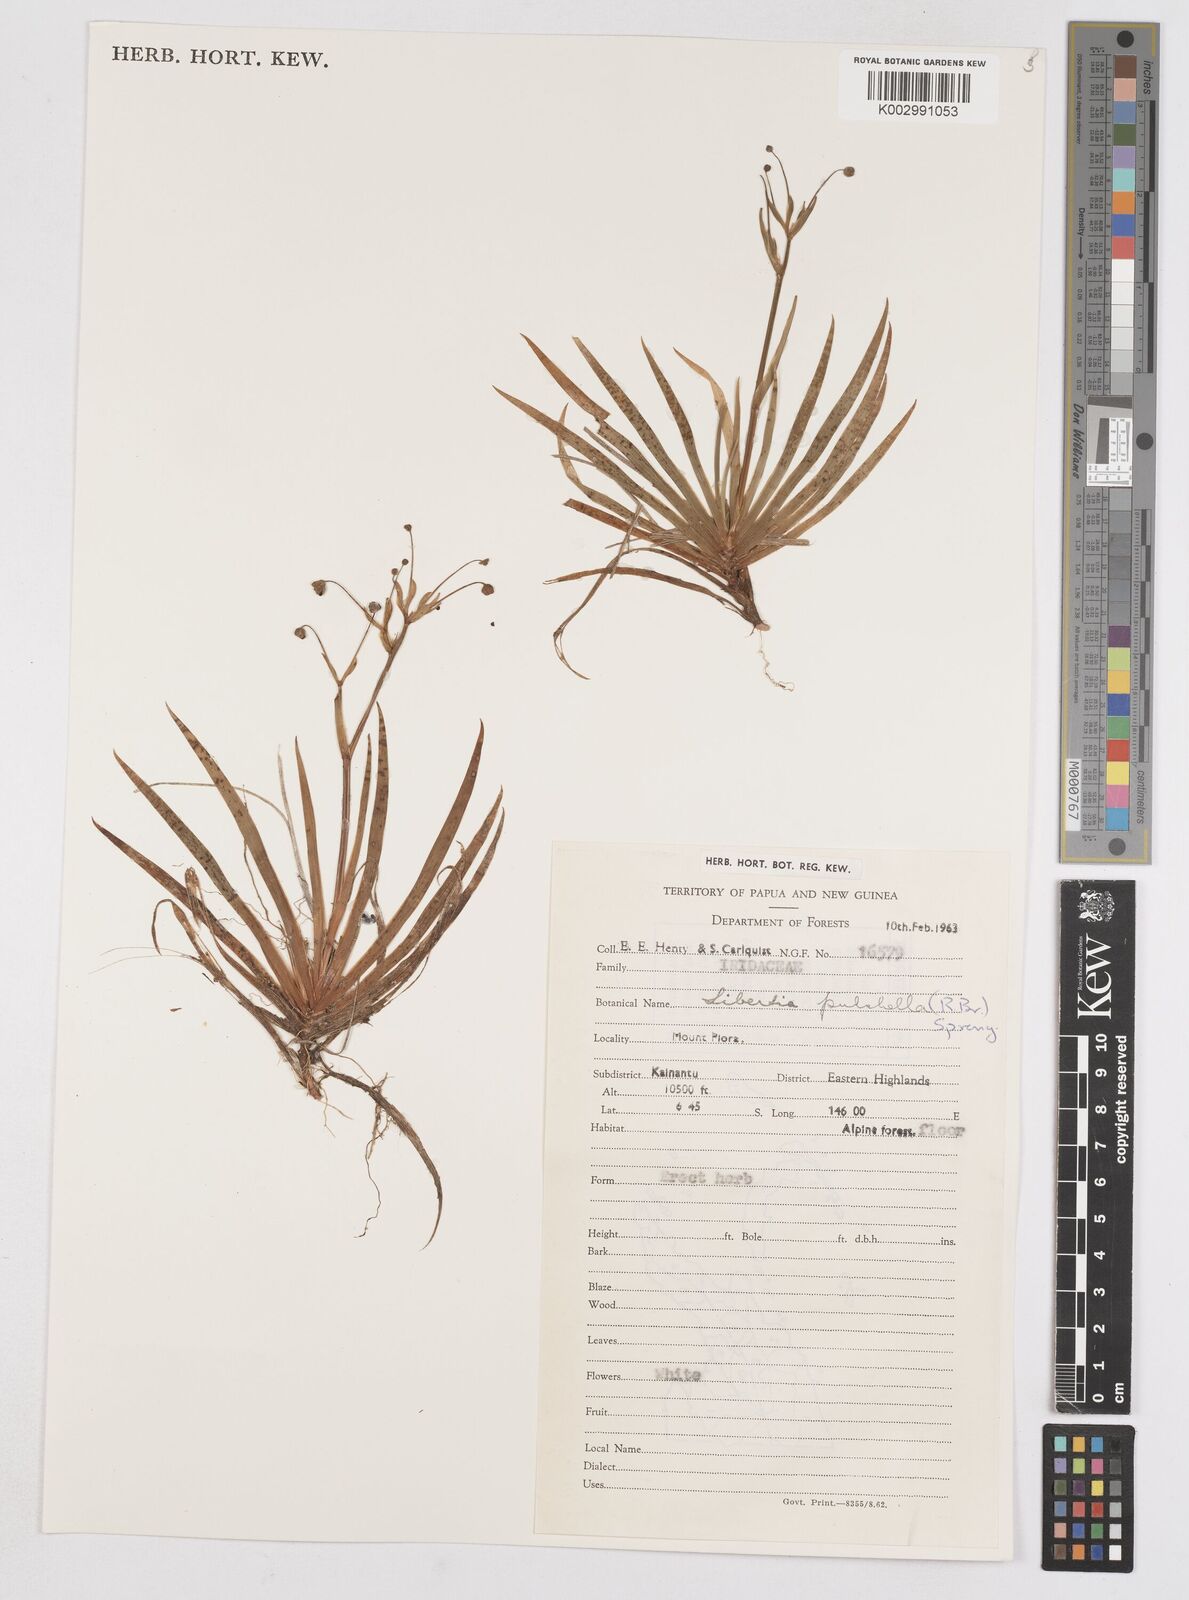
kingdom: Plantae
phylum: Tracheophyta
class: Liliopsida
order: Asparagales
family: Iridaceae
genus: Libertia
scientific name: Libertia pulchella
